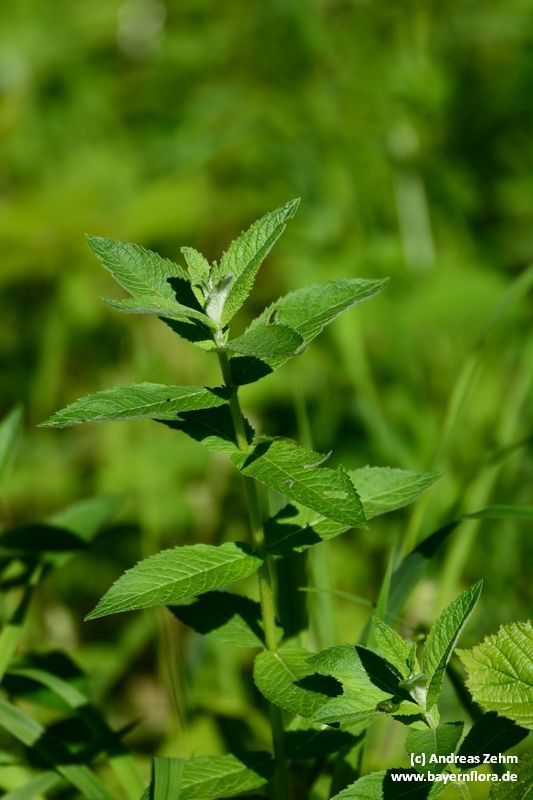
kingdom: Plantae
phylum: Tracheophyta
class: Magnoliopsida
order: Lamiales
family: Lamiaceae
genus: Mentha
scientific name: Mentha longifolia
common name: Horse mint
